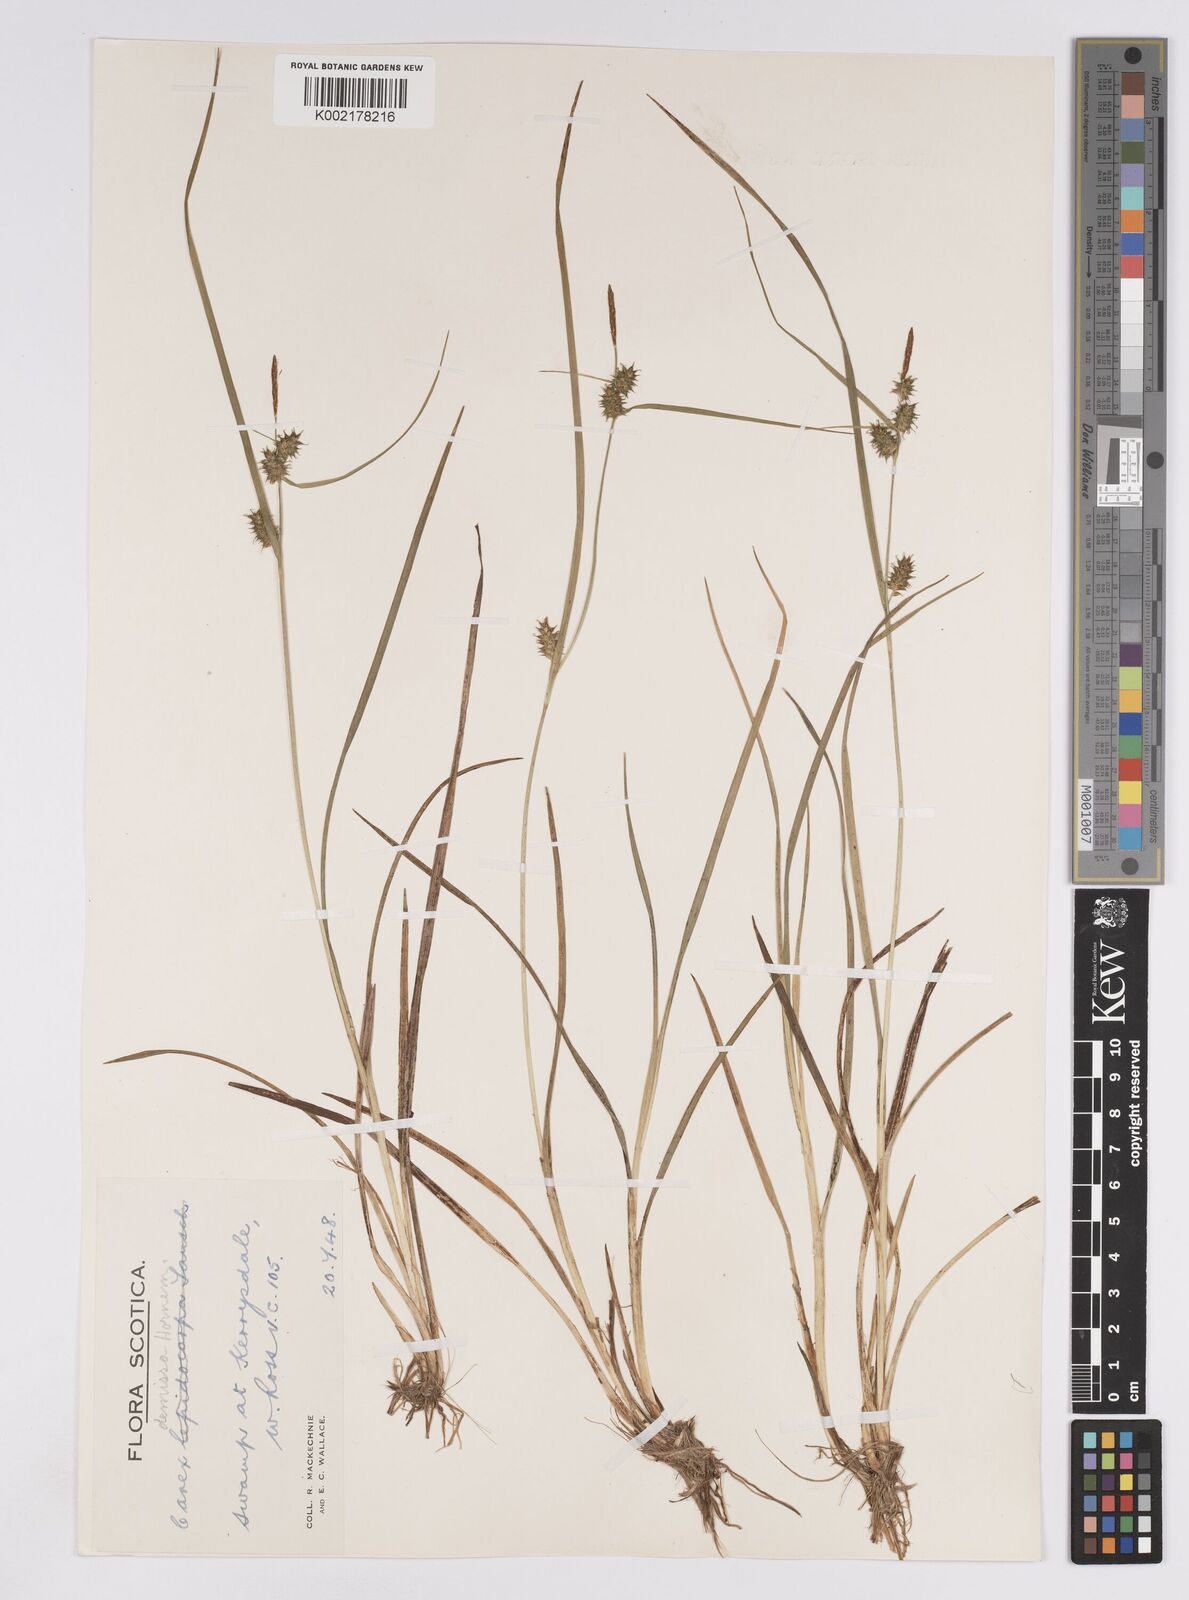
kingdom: Plantae
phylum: Tracheophyta
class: Liliopsida
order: Poales
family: Cyperaceae
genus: Carex
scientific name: Carex demissa
